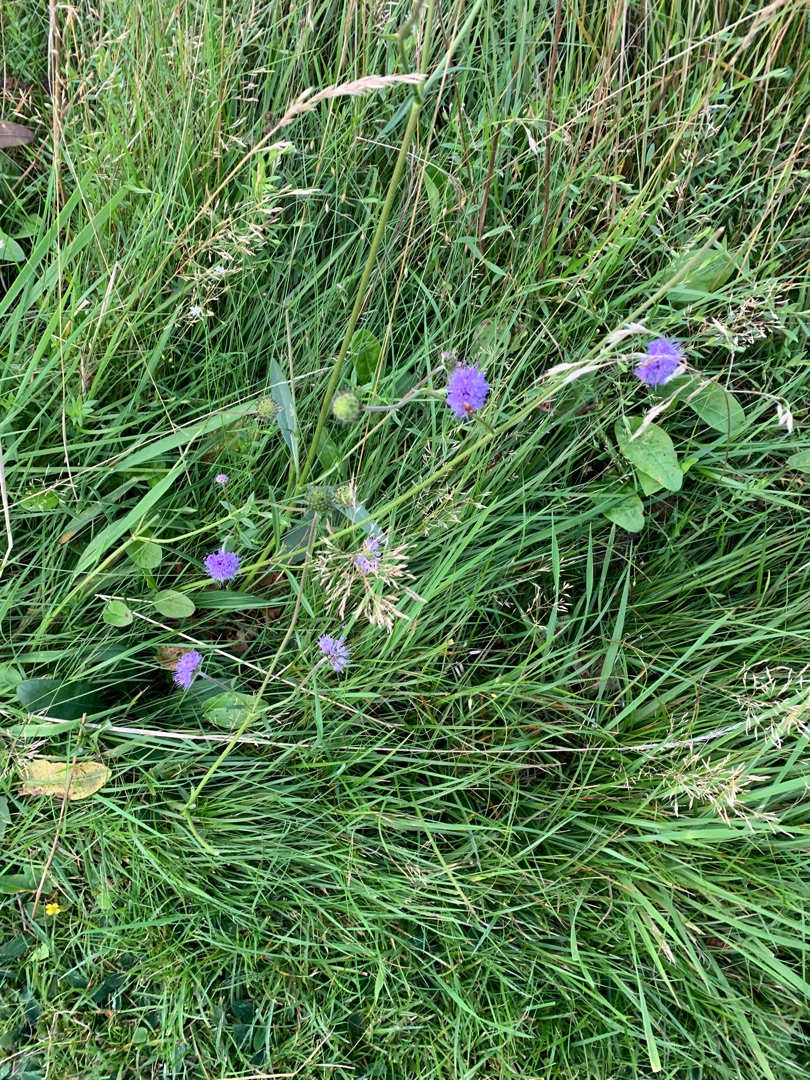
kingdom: Plantae
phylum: Tracheophyta
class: Magnoliopsida
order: Dipsacales
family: Caprifoliaceae
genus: Succisa
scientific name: Succisa pratensis
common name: Djævelsbid
